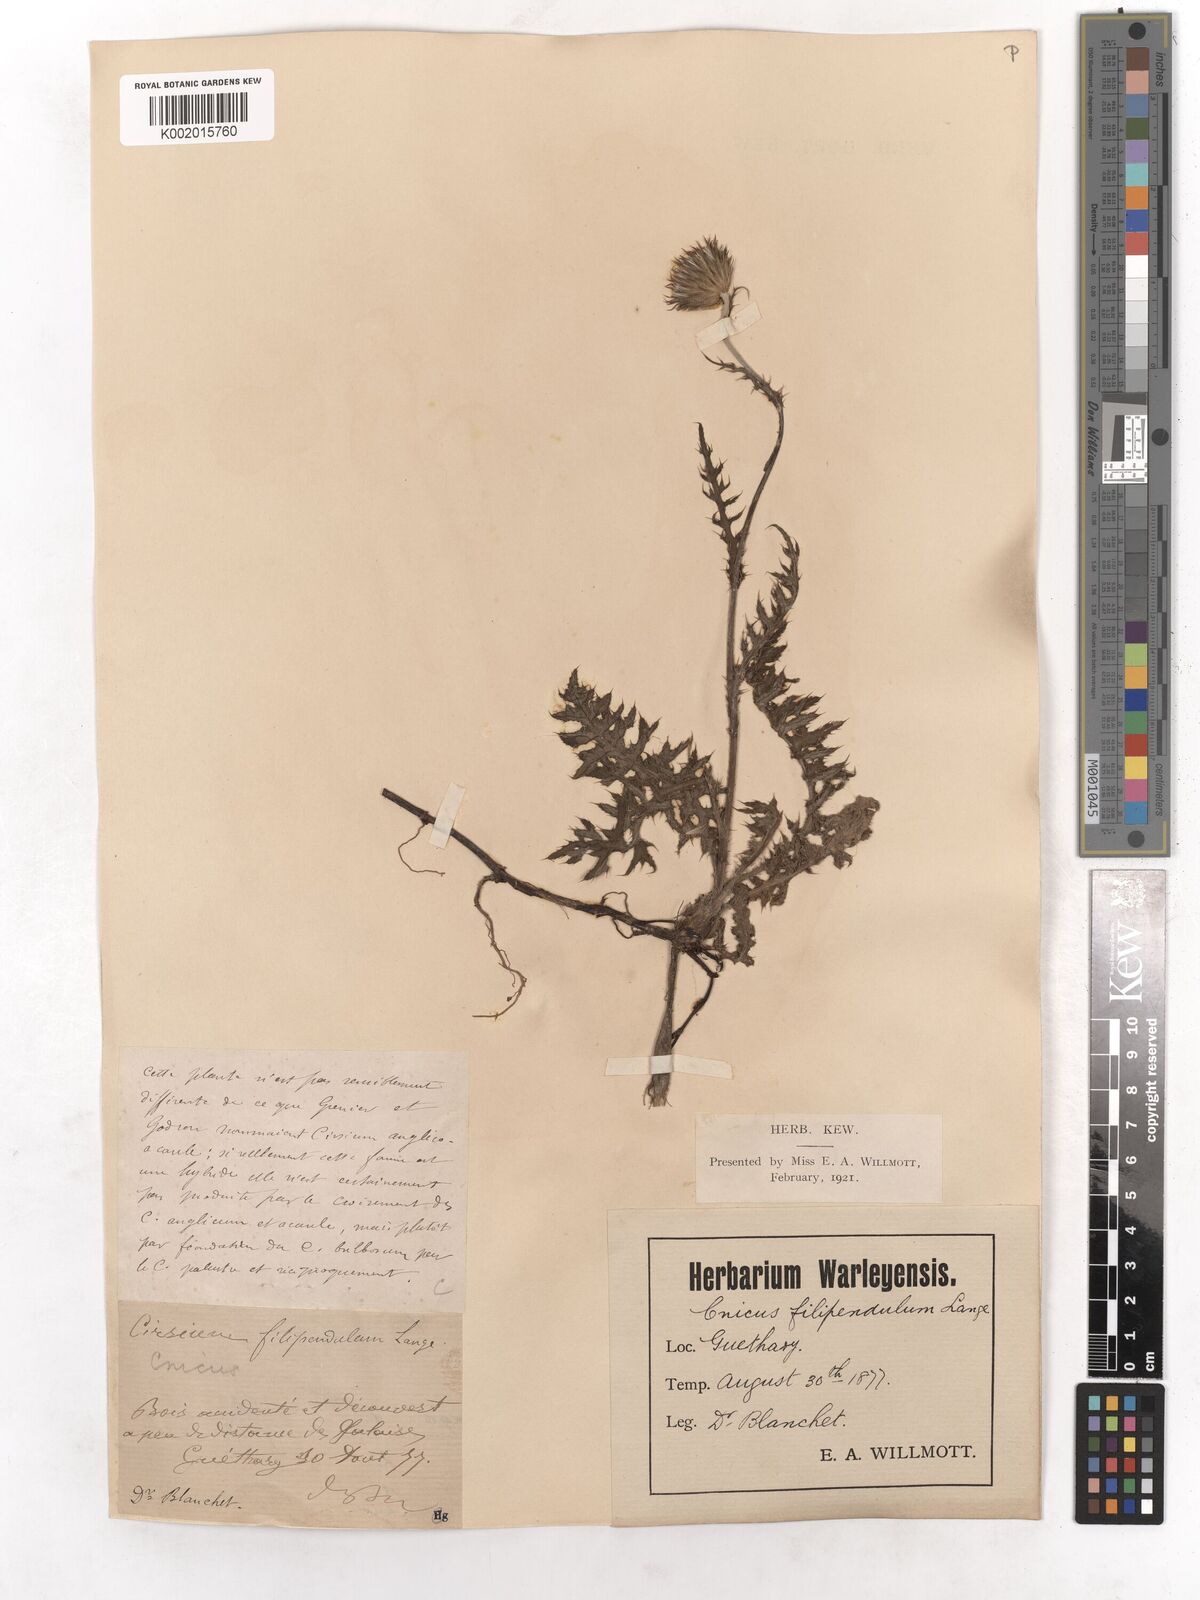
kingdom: Plantae
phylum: Tracheophyta
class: Magnoliopsida
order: Asterales
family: Asteraceae
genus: Cirsium
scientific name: Cirsium filipendulum
